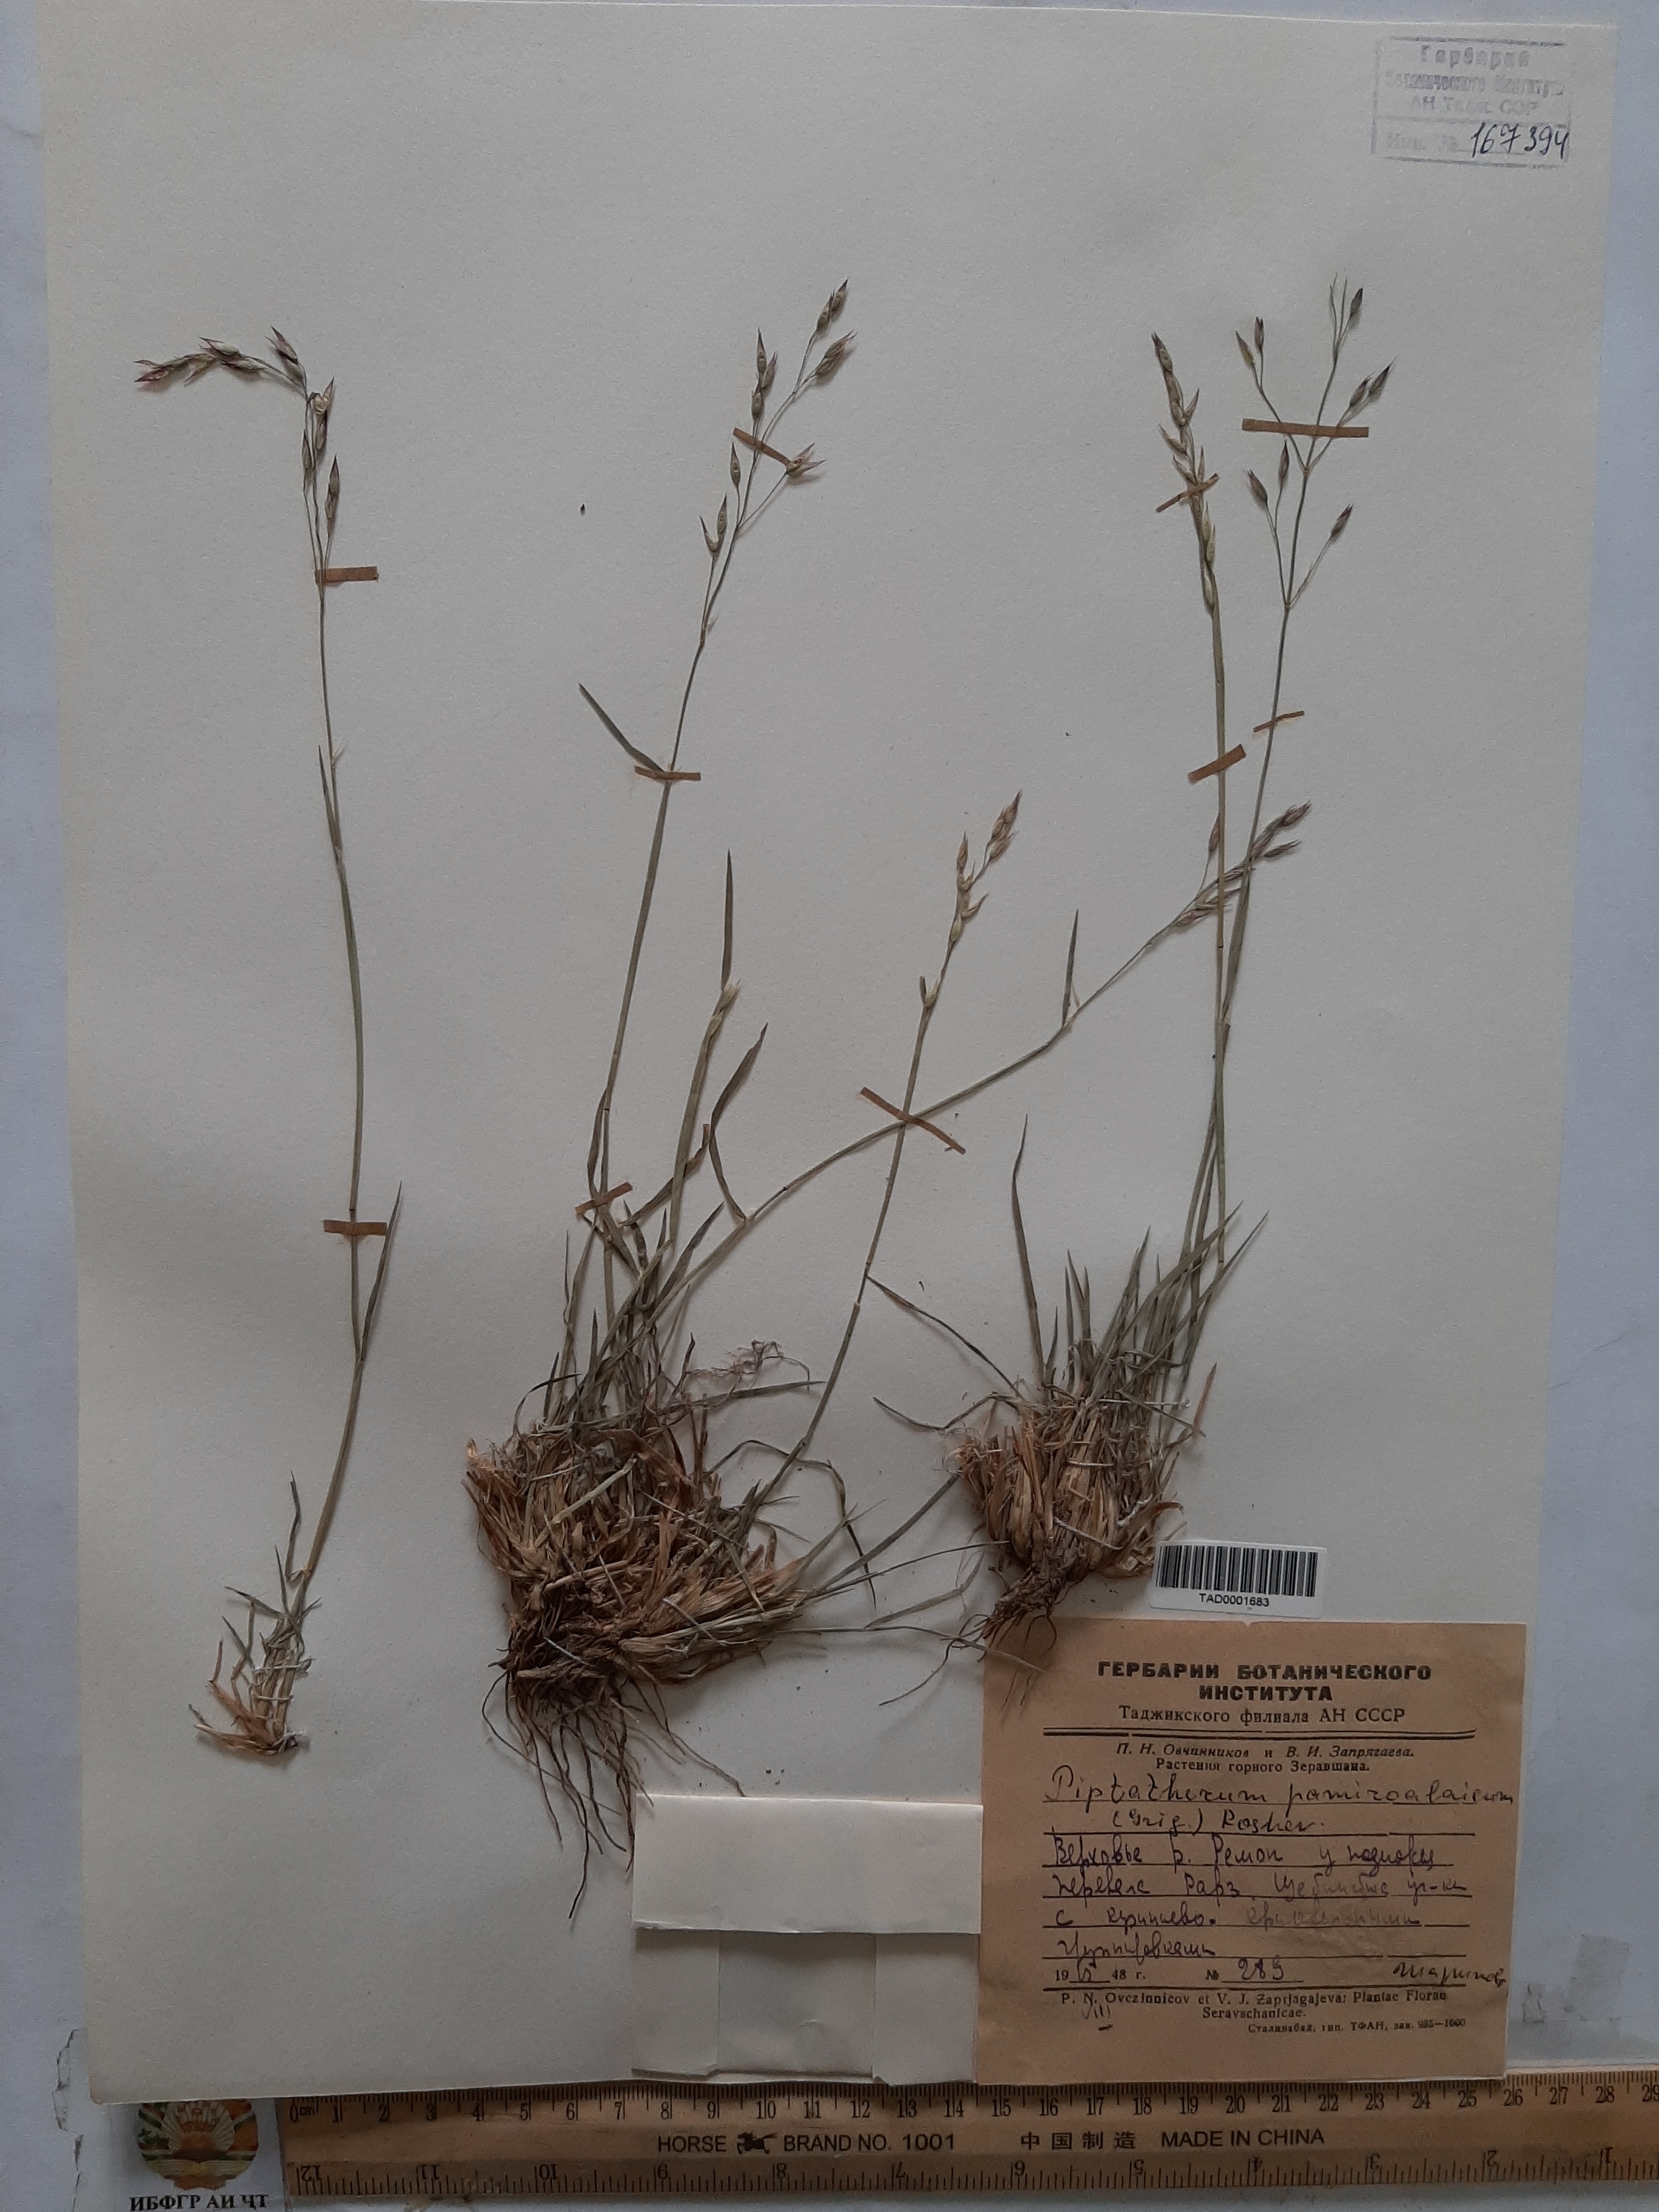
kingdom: Plantae
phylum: Tracheophyta
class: Liliopsida
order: Poales
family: Poaceae
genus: Piptatherum
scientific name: Piptatherum pamiralaicum
